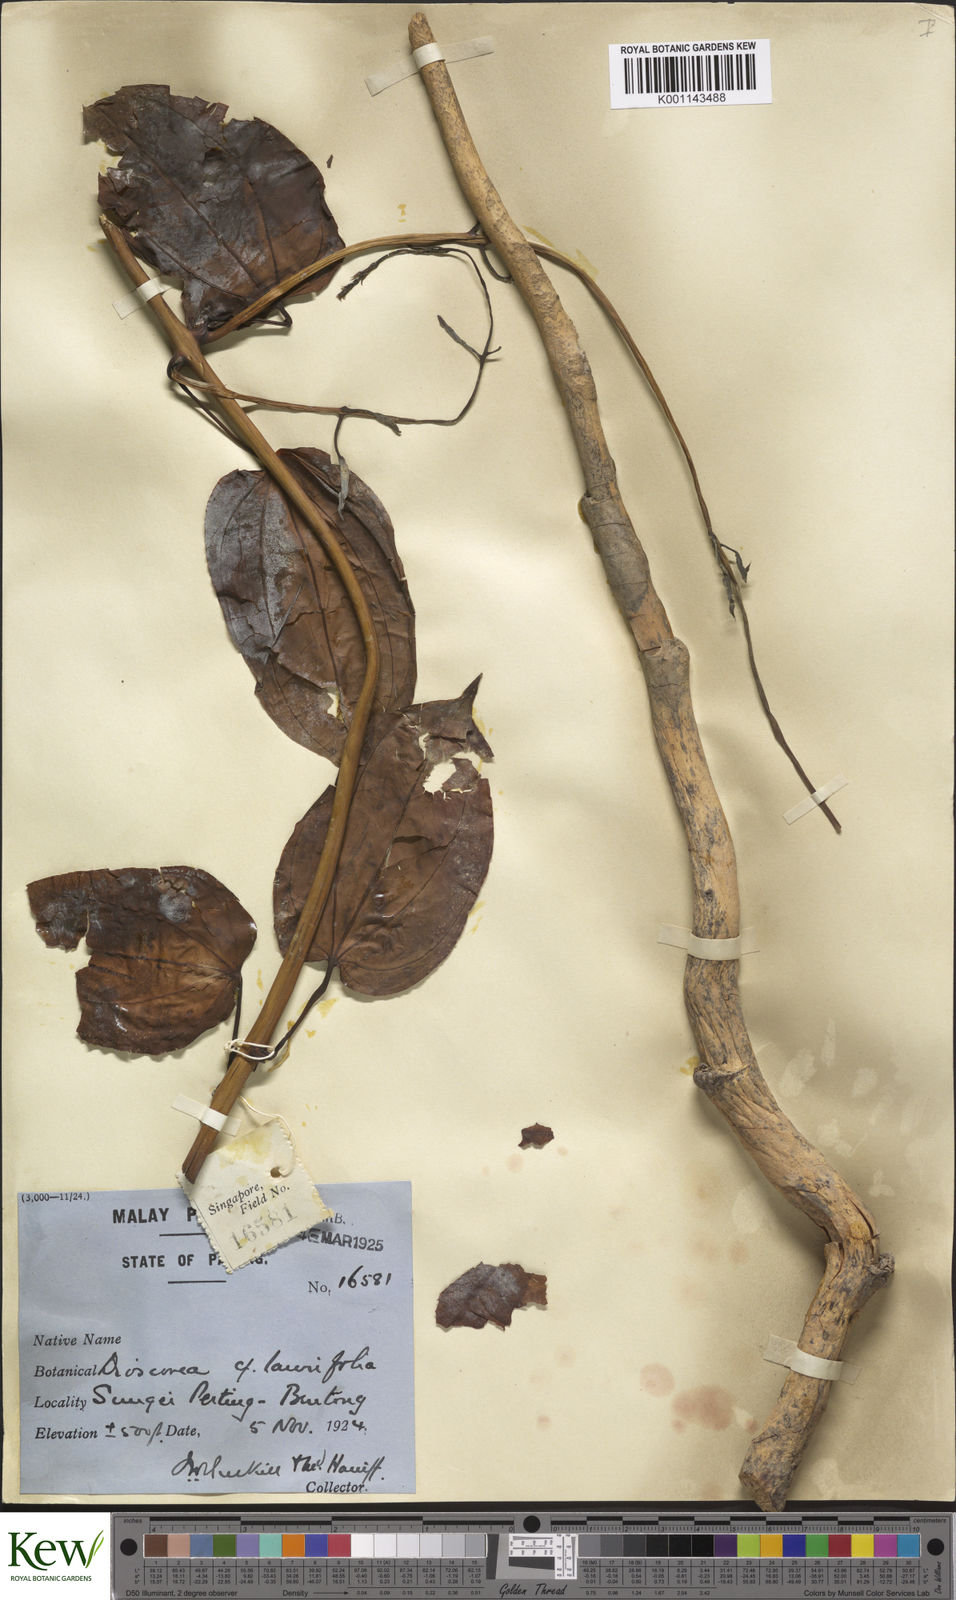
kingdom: Plantae
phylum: Tracheophyta
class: Liliopsida
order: Dioscoreales
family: Dioscoreaceae
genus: Dioscorea
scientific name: Dioscorea
